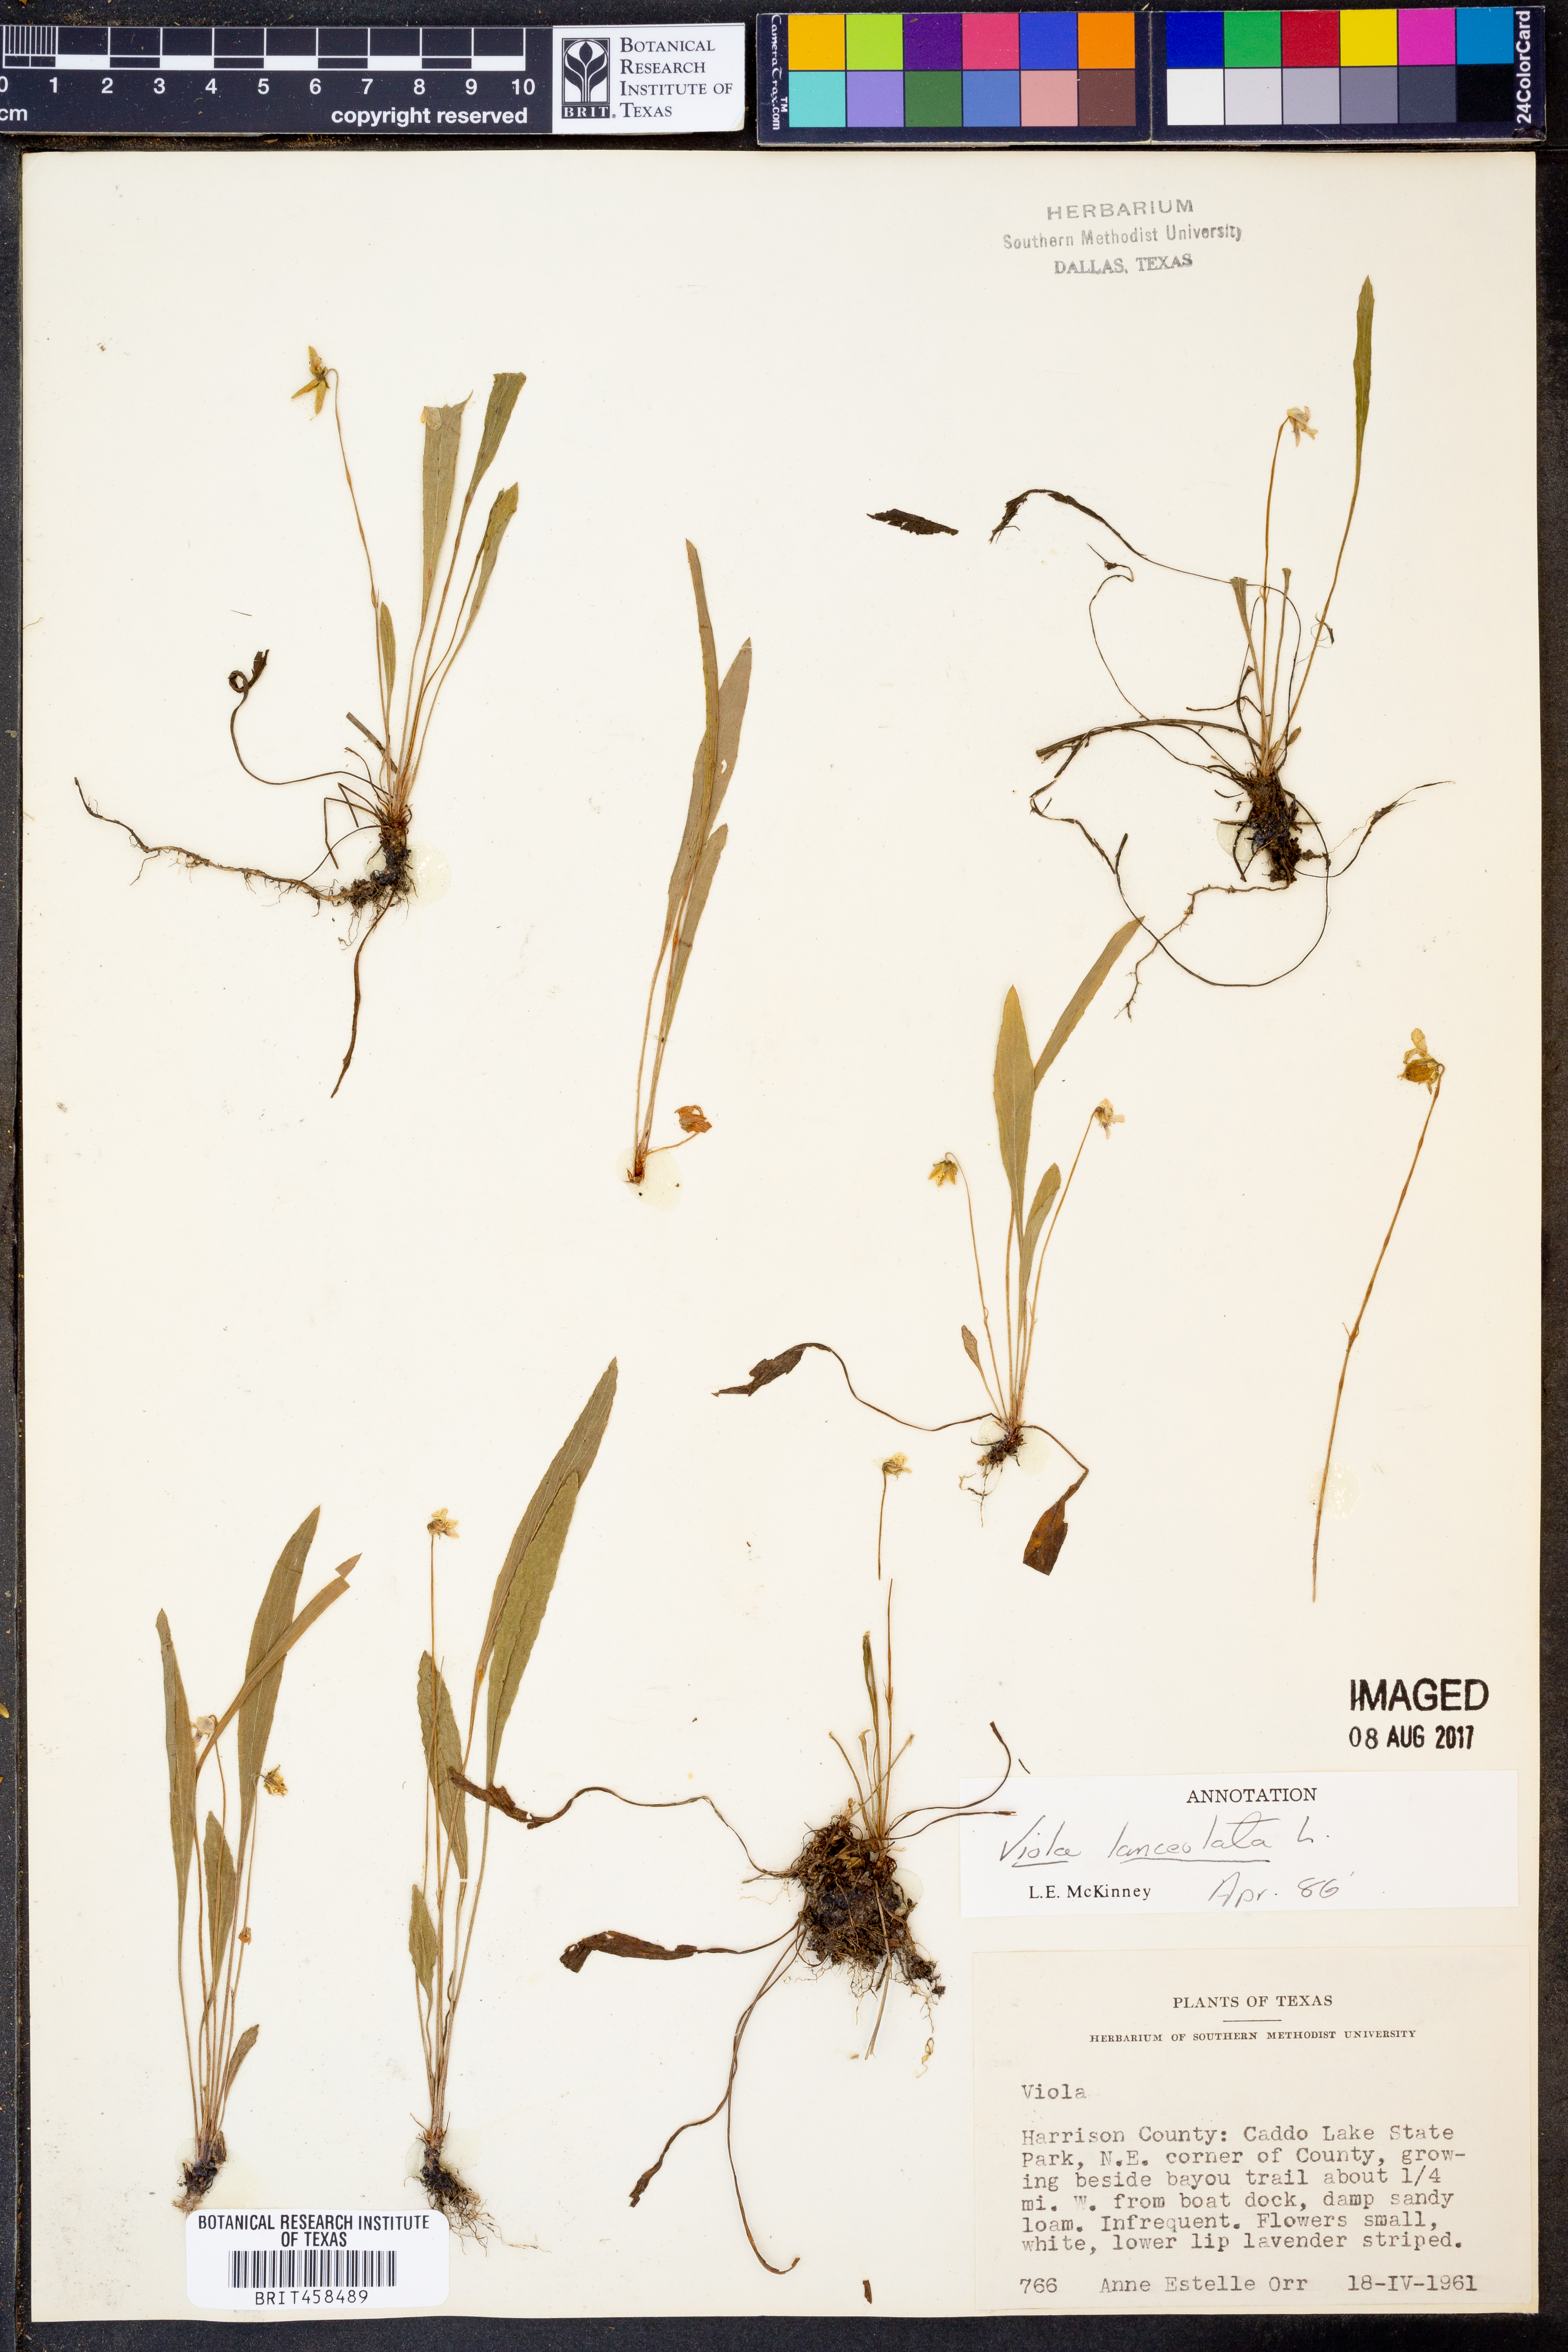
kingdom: Plantae
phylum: Tracheophyta
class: Magnoliopsida
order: Malpighiales
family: Violaceae
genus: Viola
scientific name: Viola lanceolata
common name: Bog white violet
